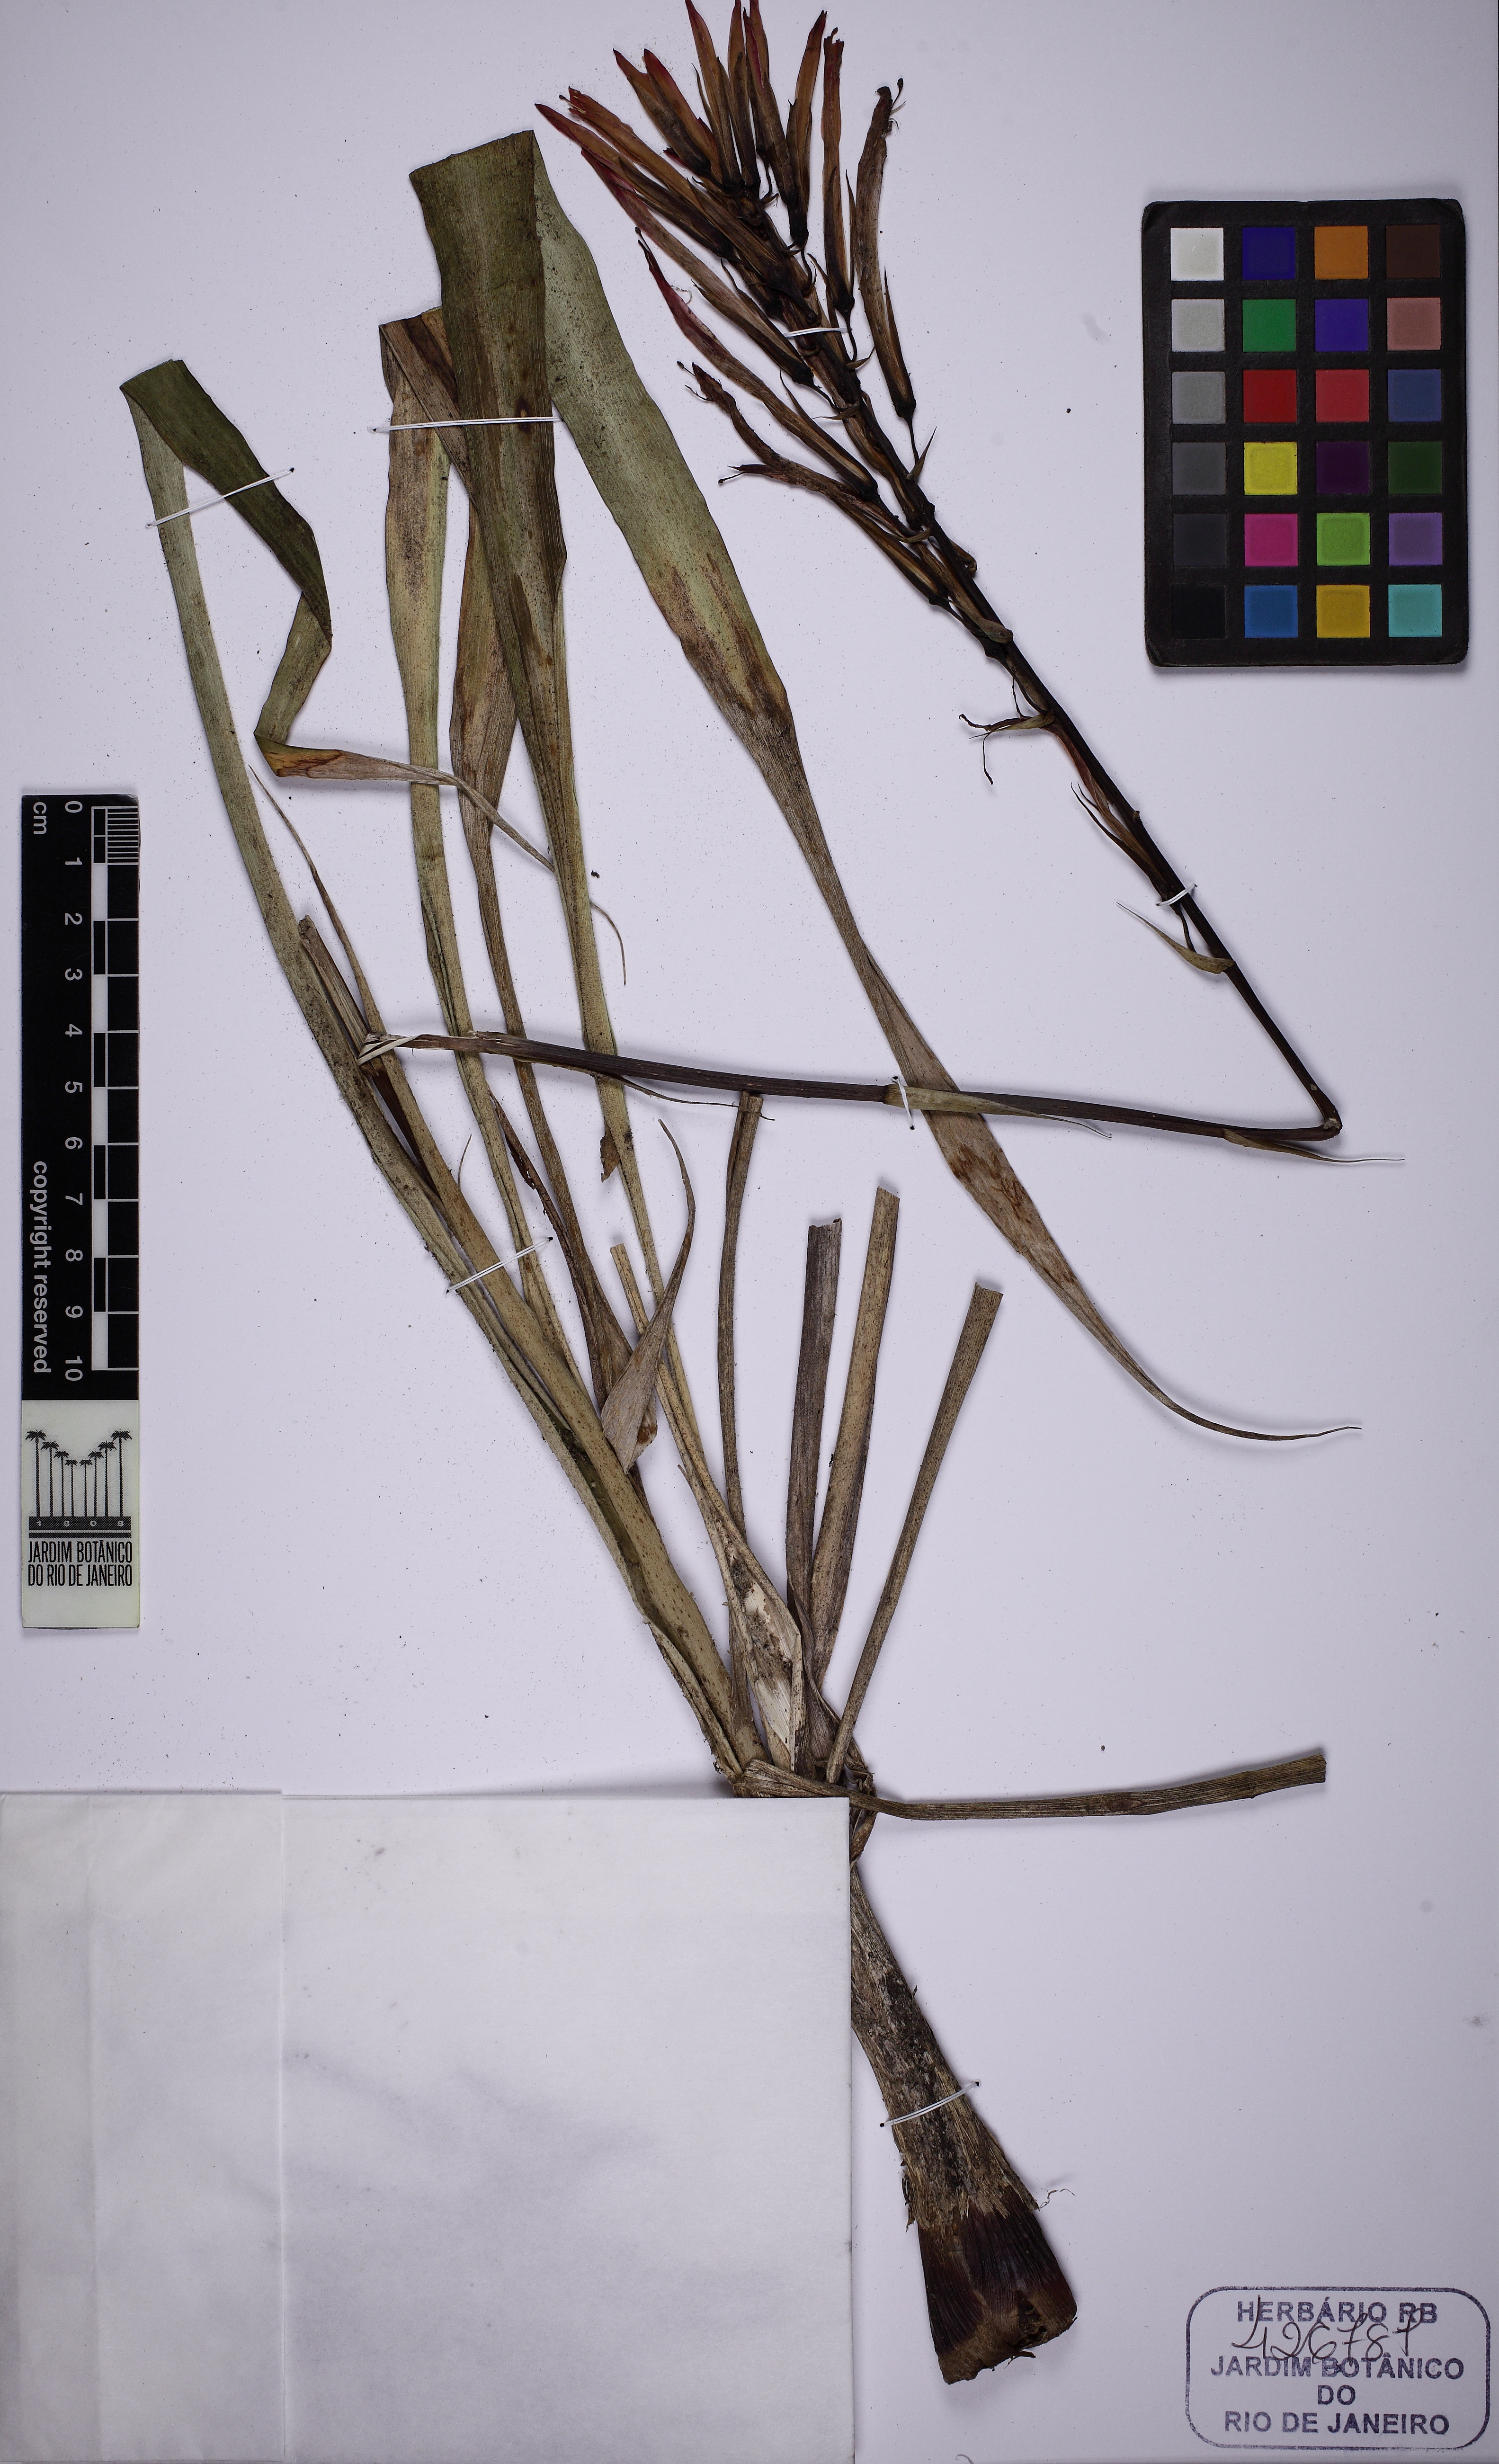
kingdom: Plantae
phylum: Tracheophyta
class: Liliopsida
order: Poales
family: Bromeliaceae
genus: Pitcairnia
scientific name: Pitcairnia flammea
